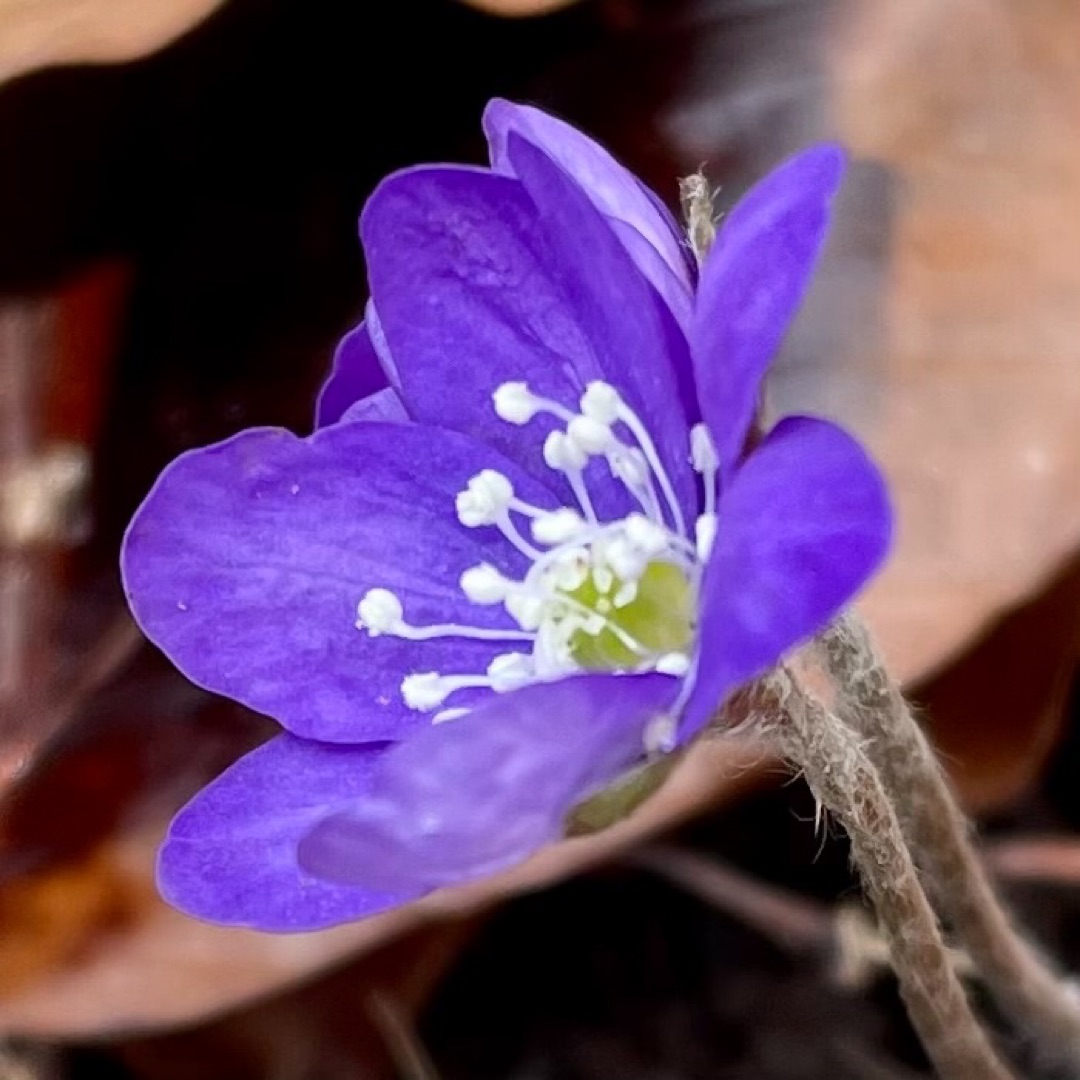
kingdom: Plantae
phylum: Tracheophyta
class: Magnoliopsida
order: Ranunculales
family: Ranunculaceae
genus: Hepatica
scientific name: Hepatica nobilis
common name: Blå anemone
